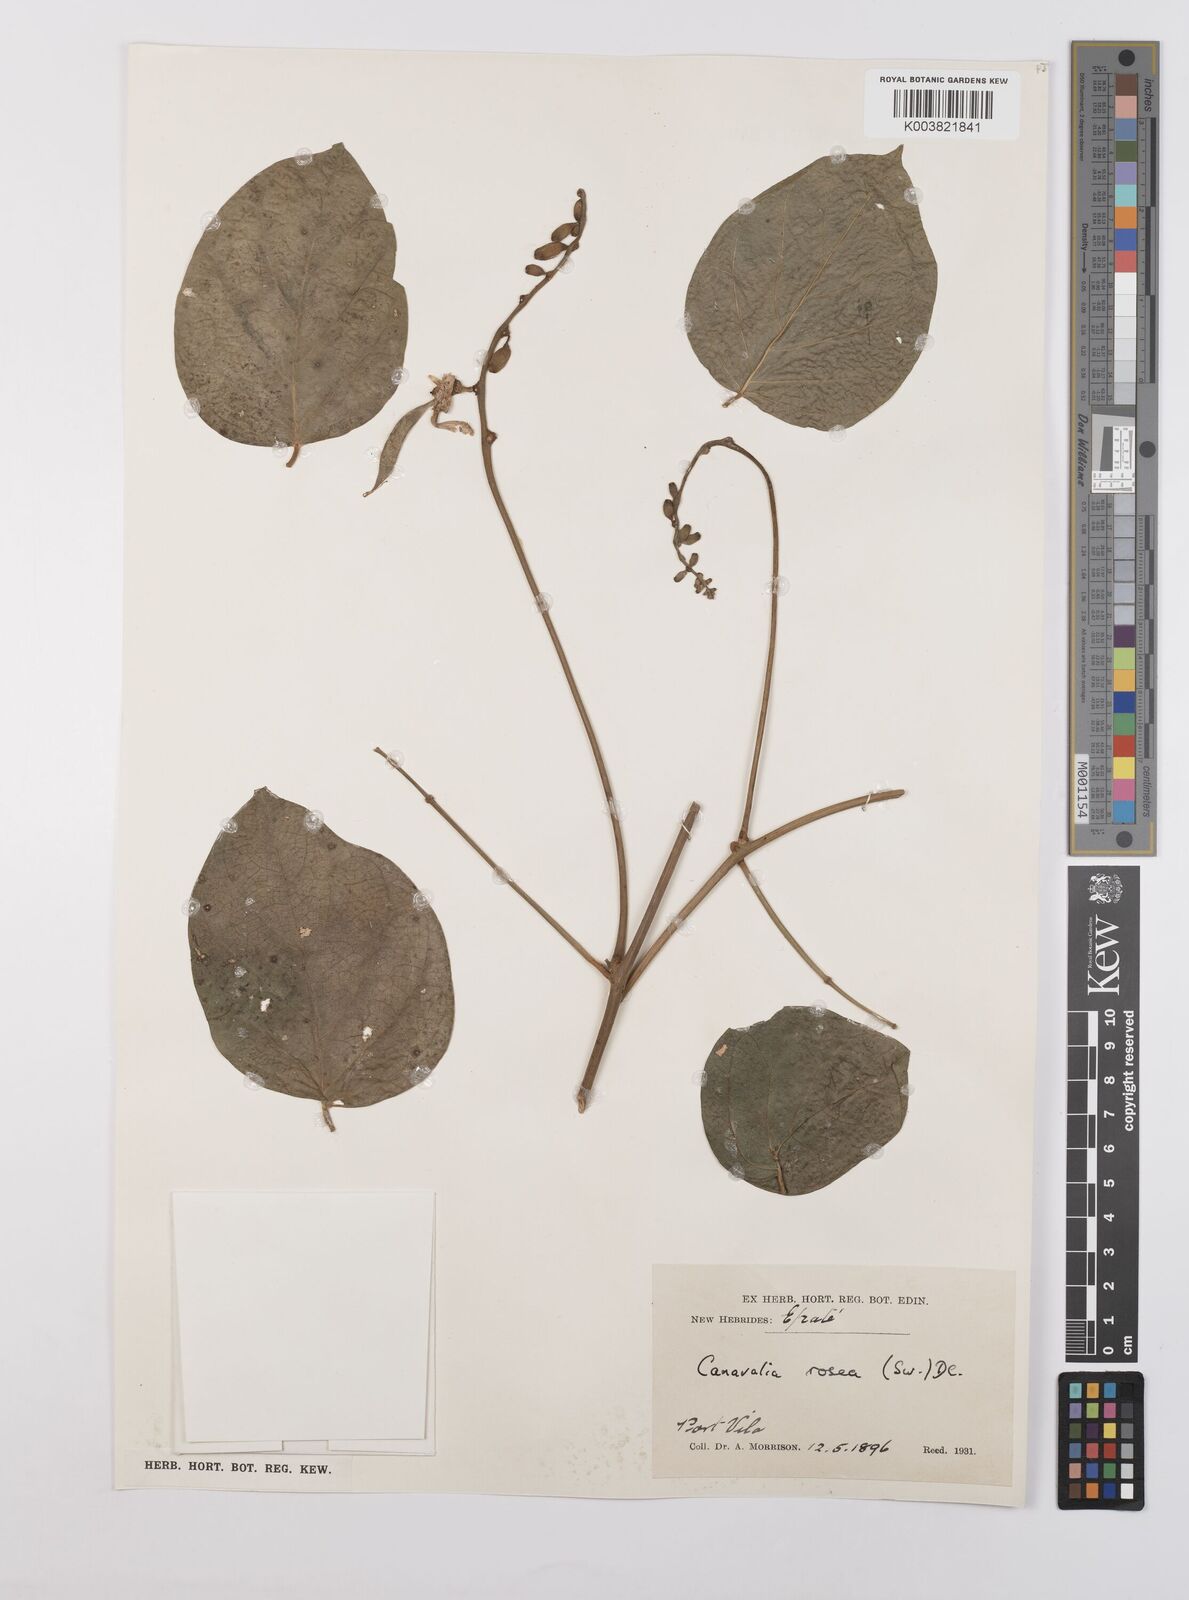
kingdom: Plantae
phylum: Tracheophyta
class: Magnoliopsida
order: Fabales
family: Fabaceae
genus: Canavalia
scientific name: Canavalia rosea
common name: Beach-bean
